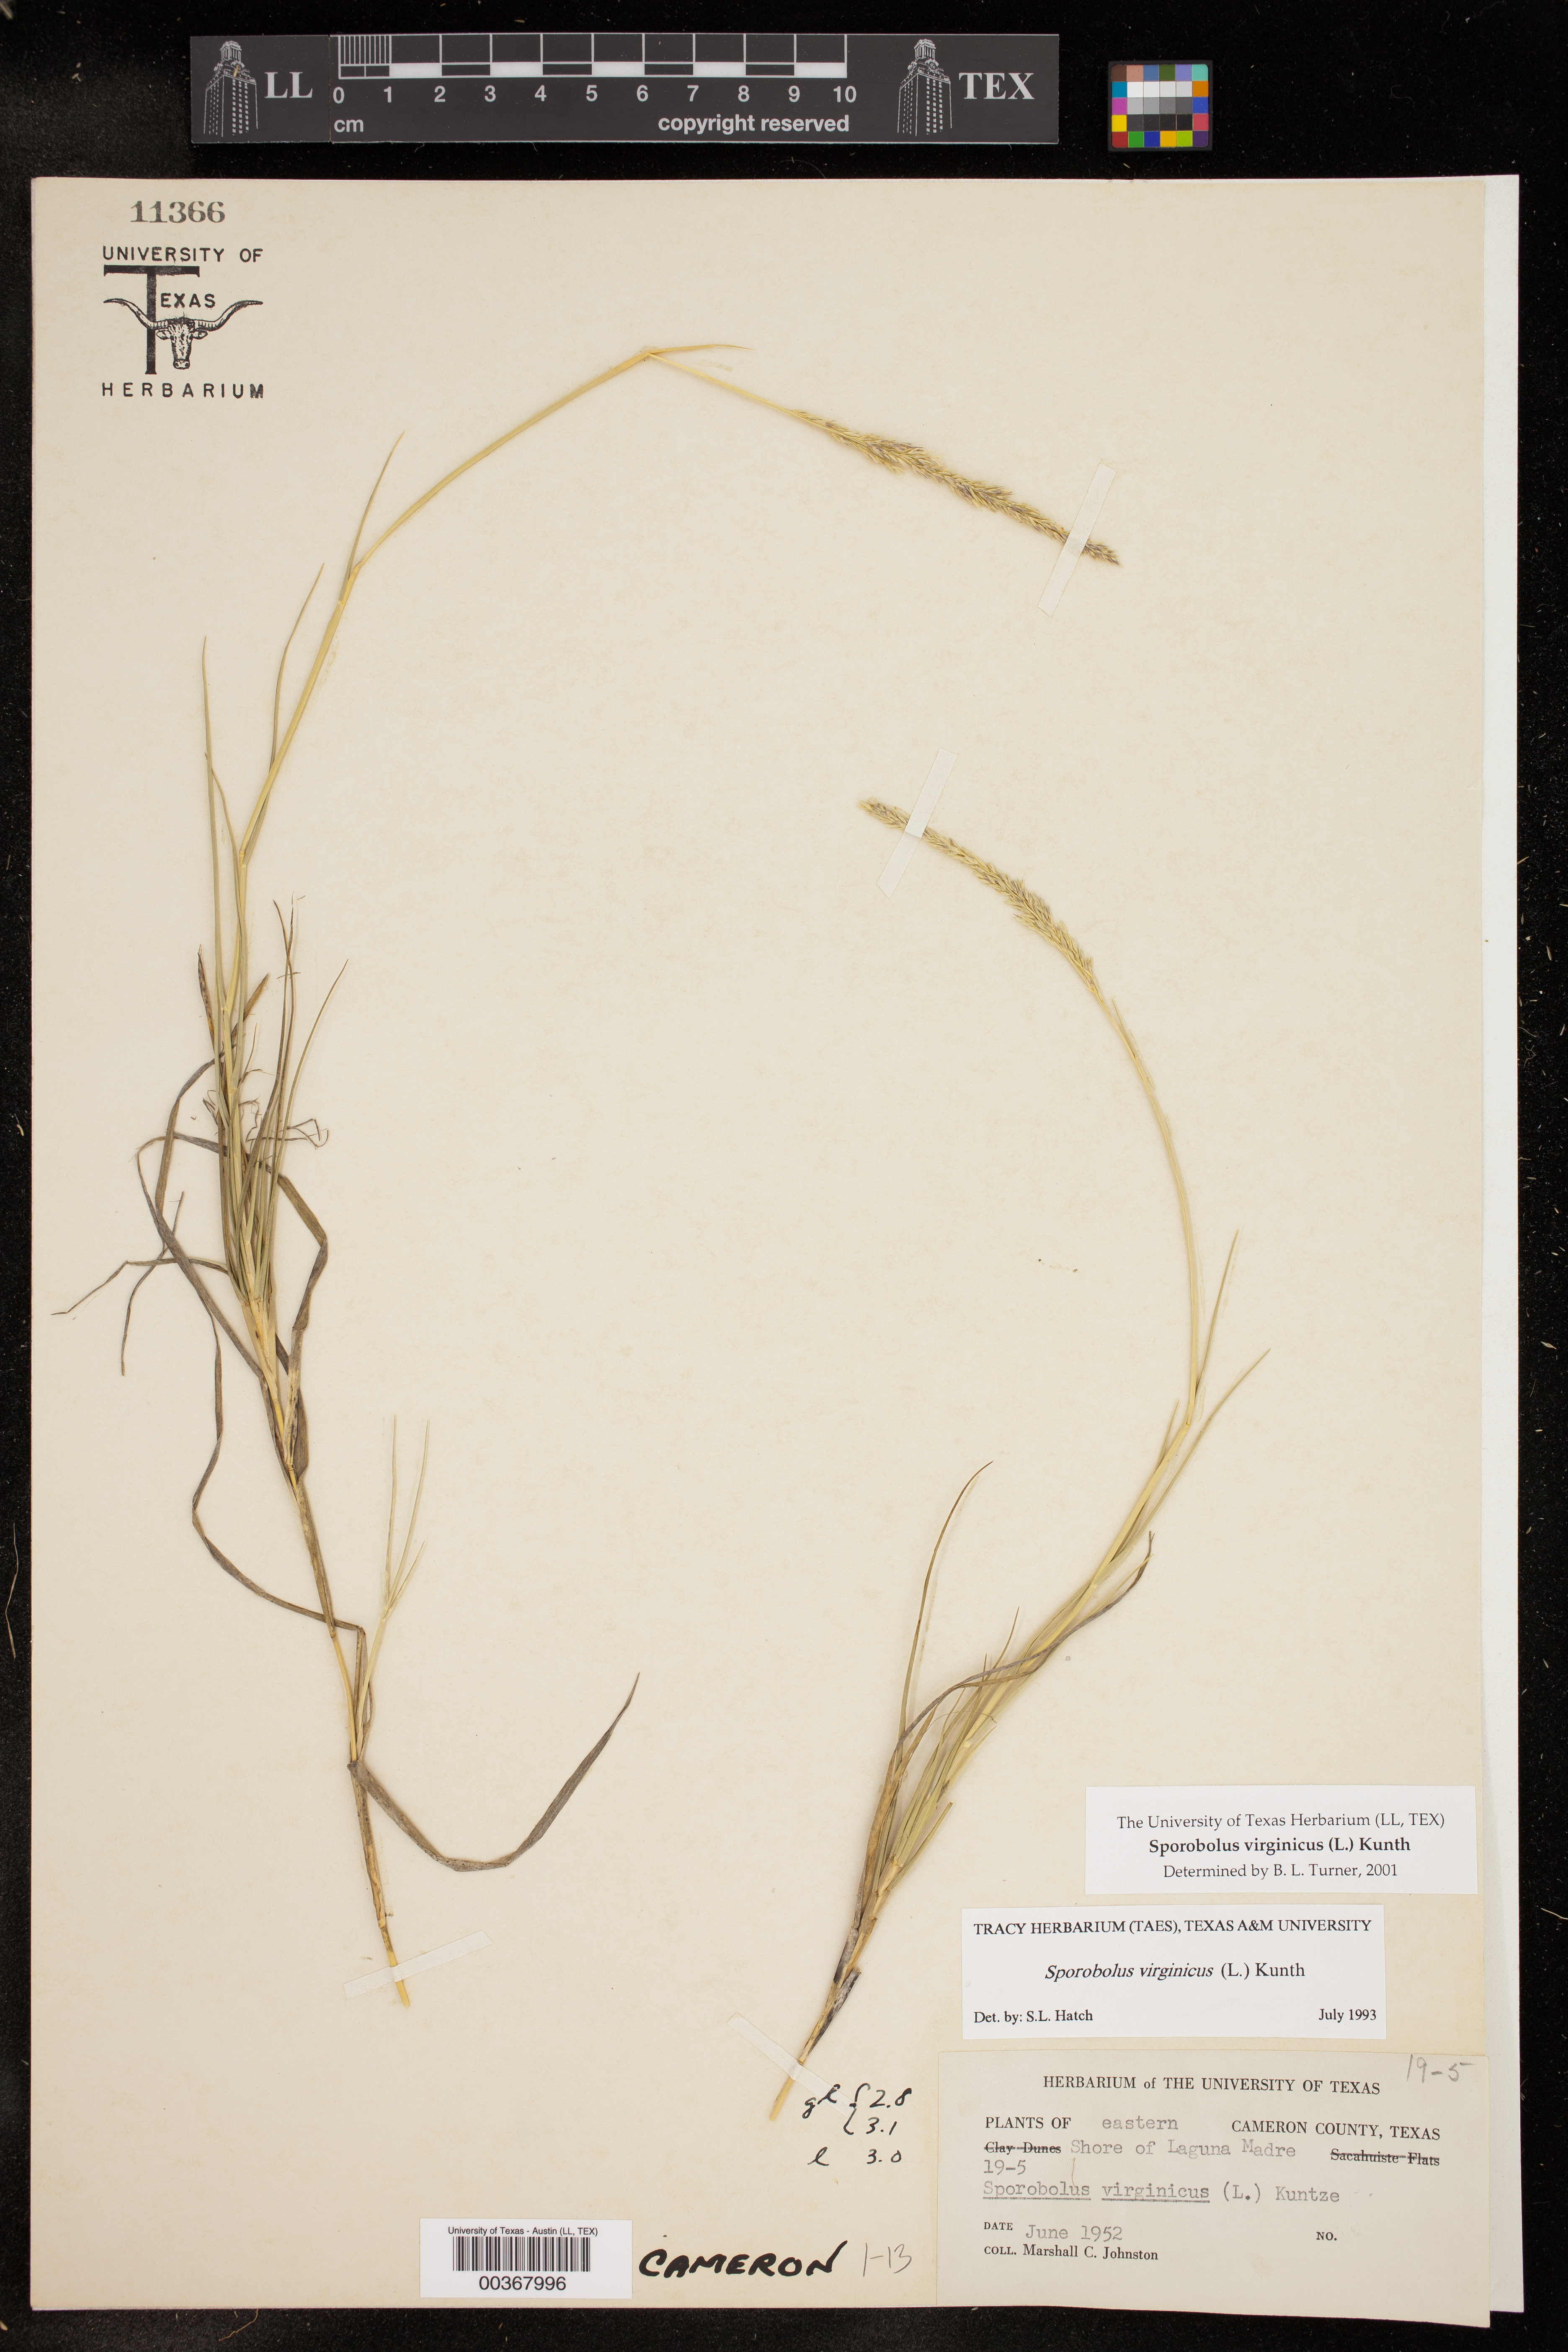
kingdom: Plantae
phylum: Tracheophyta
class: Liliopsida
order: Poales
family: Poaceae
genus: Sporobolus
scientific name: Sporobolus virginicus
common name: Beach dropseed
